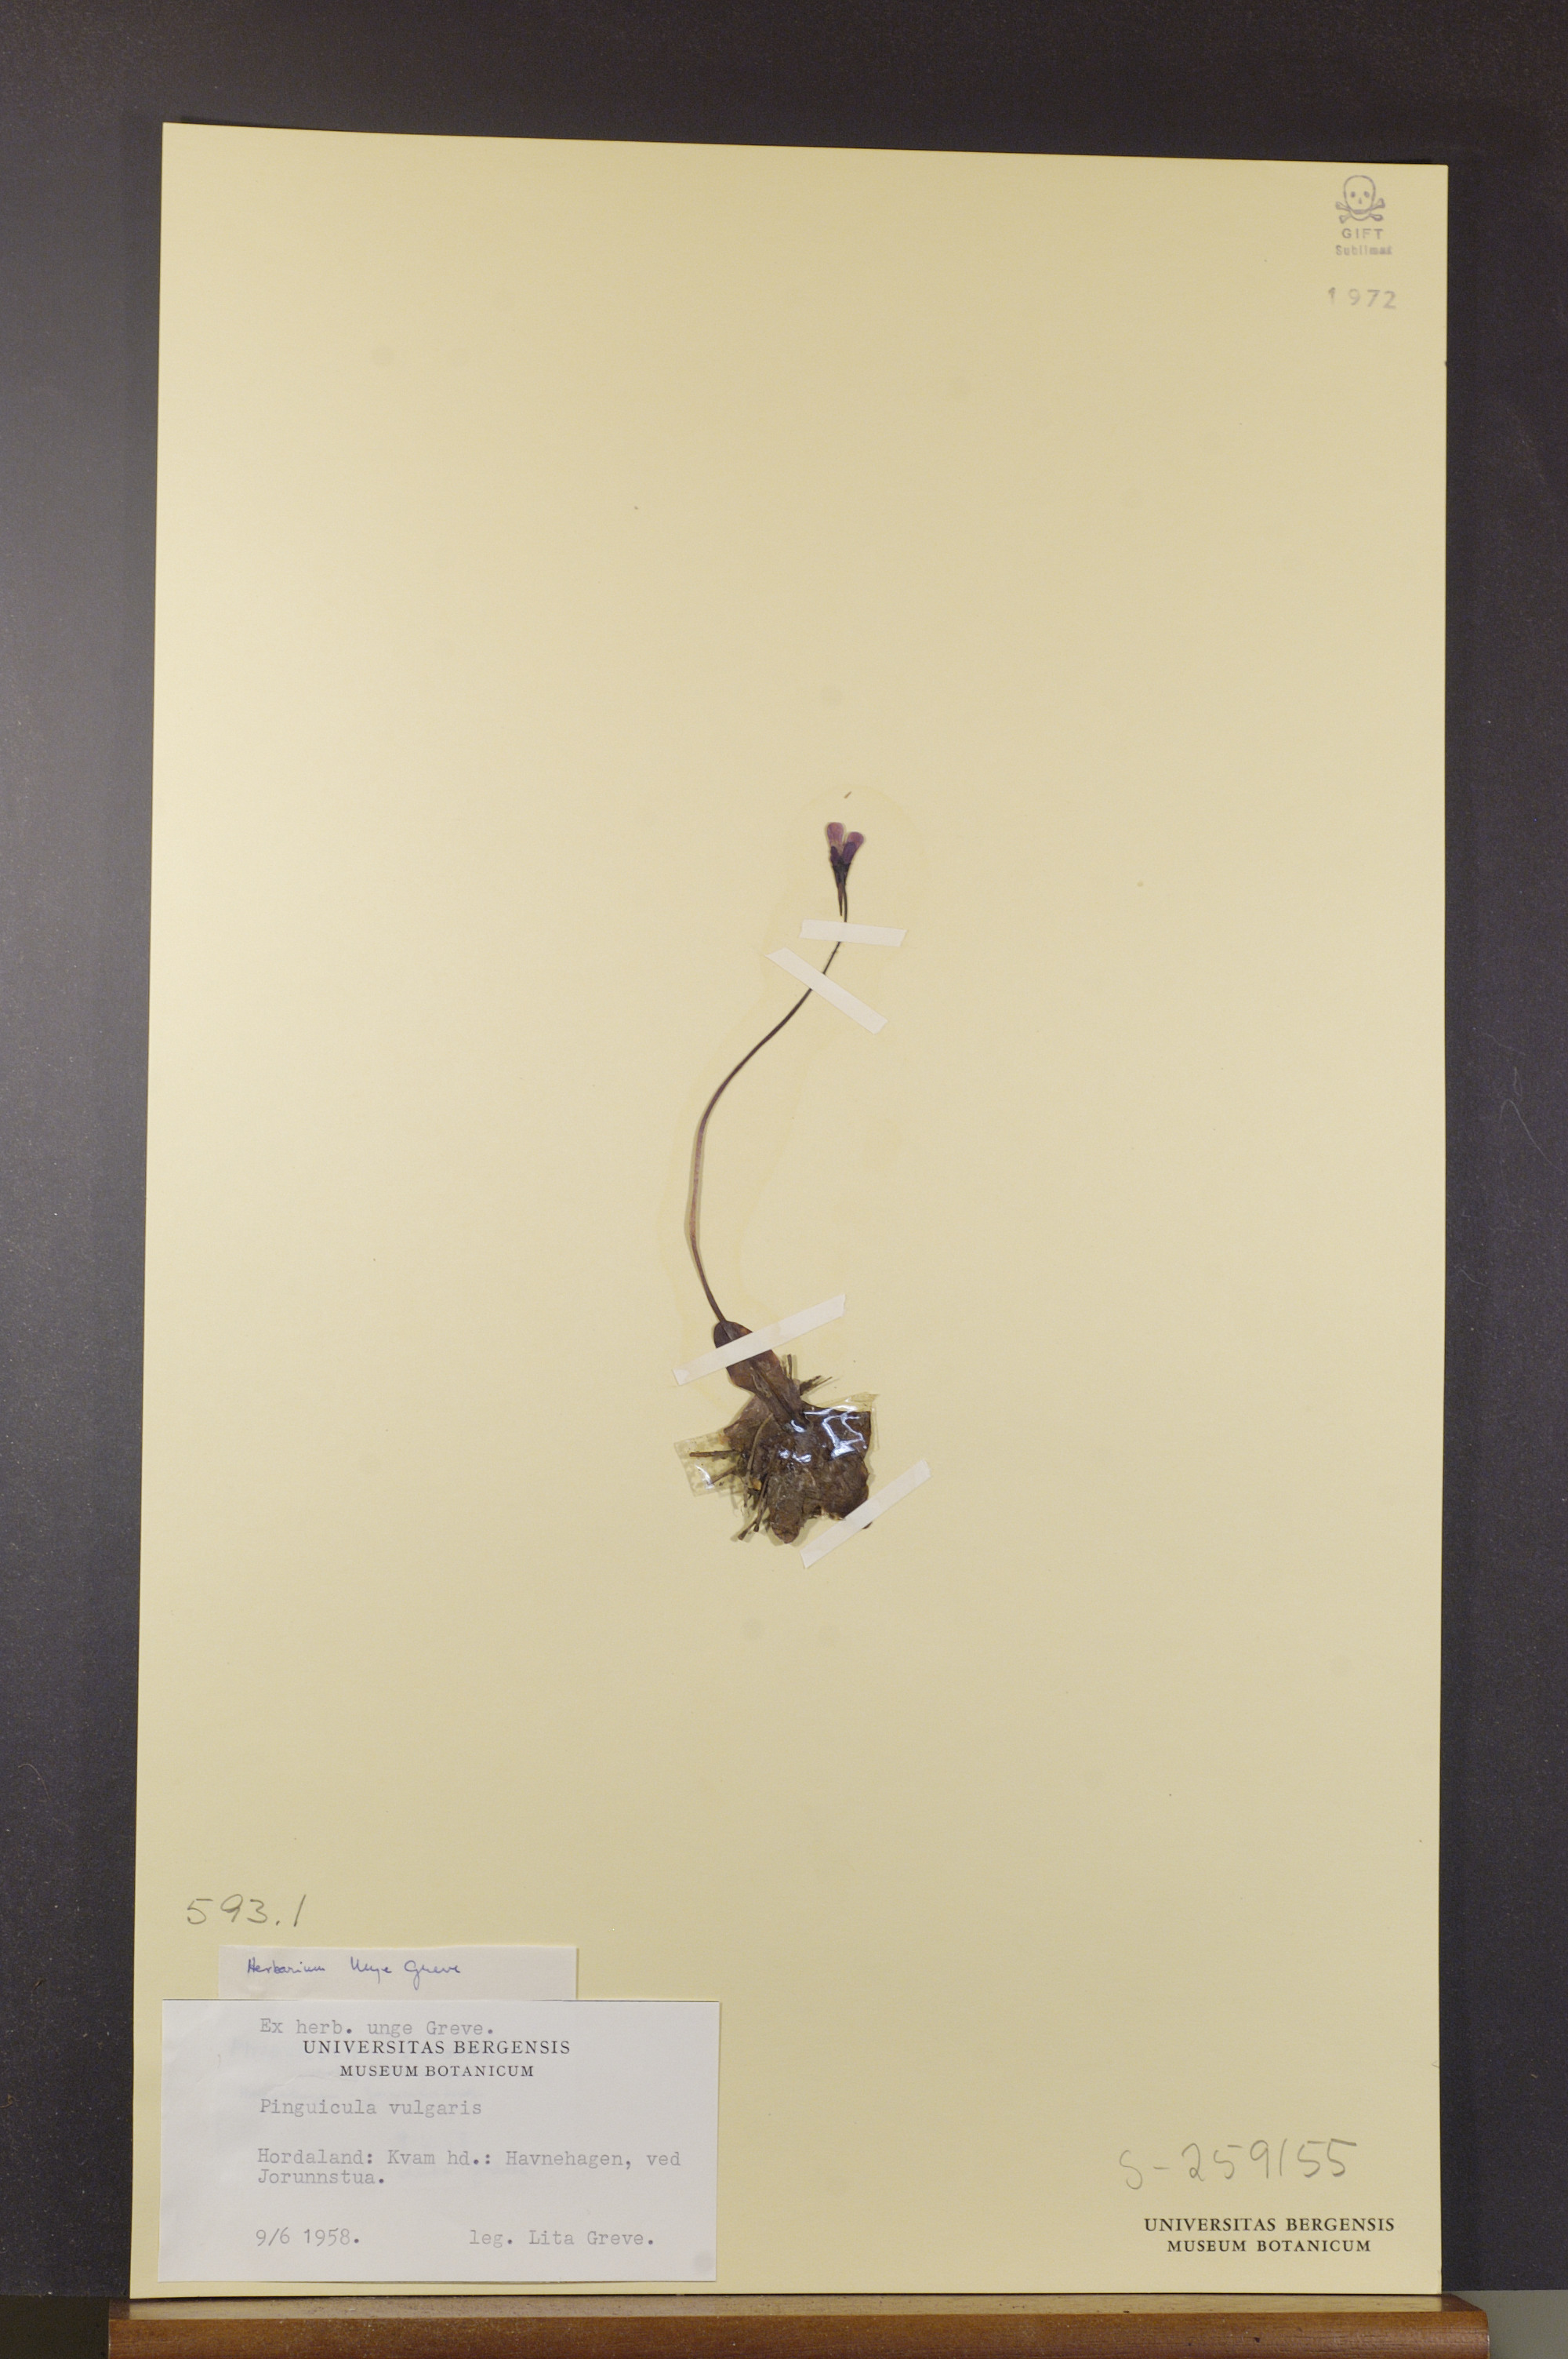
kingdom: Plantae
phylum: Tracheophyta
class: Magnoliopsida
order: Lamiales
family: Lentibulariaceae
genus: Pinguicula
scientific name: Pinguicula vulgaris
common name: Common butterwort
